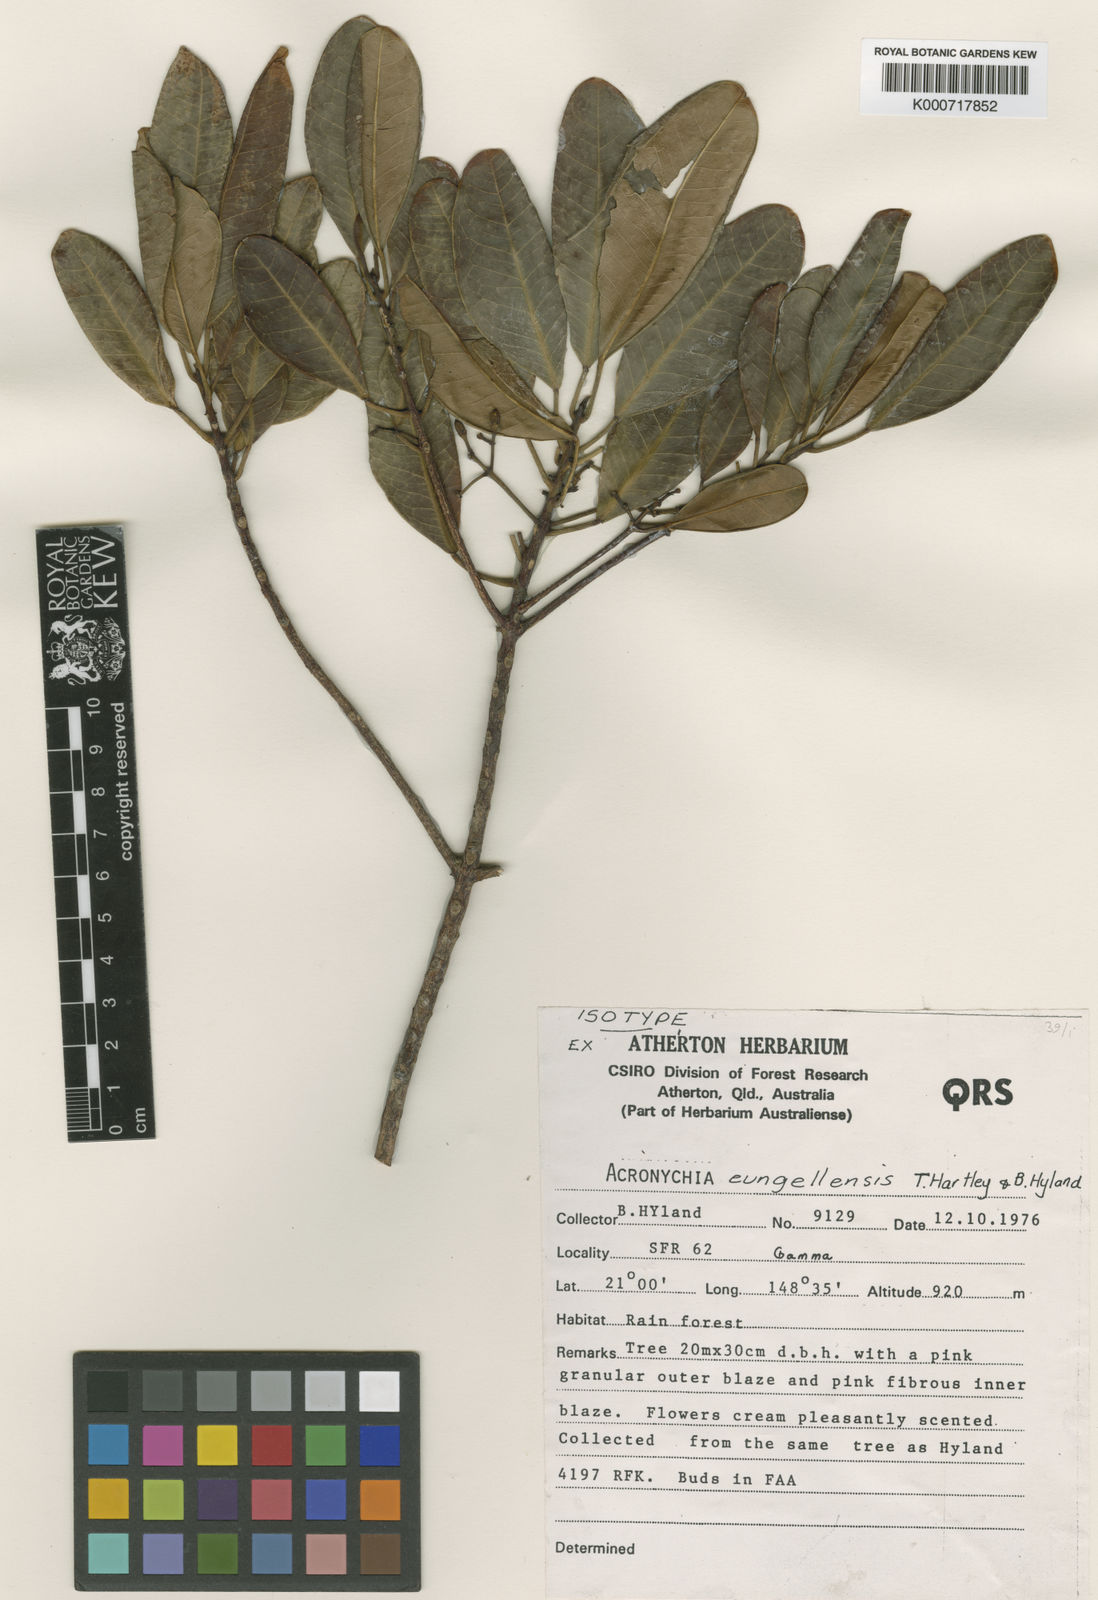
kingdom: Plantae
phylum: Tracheophyta
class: Magnoliopsida
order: Sapindales
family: Rutaceae
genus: Acronychia
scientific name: Acronychia eungellensis
